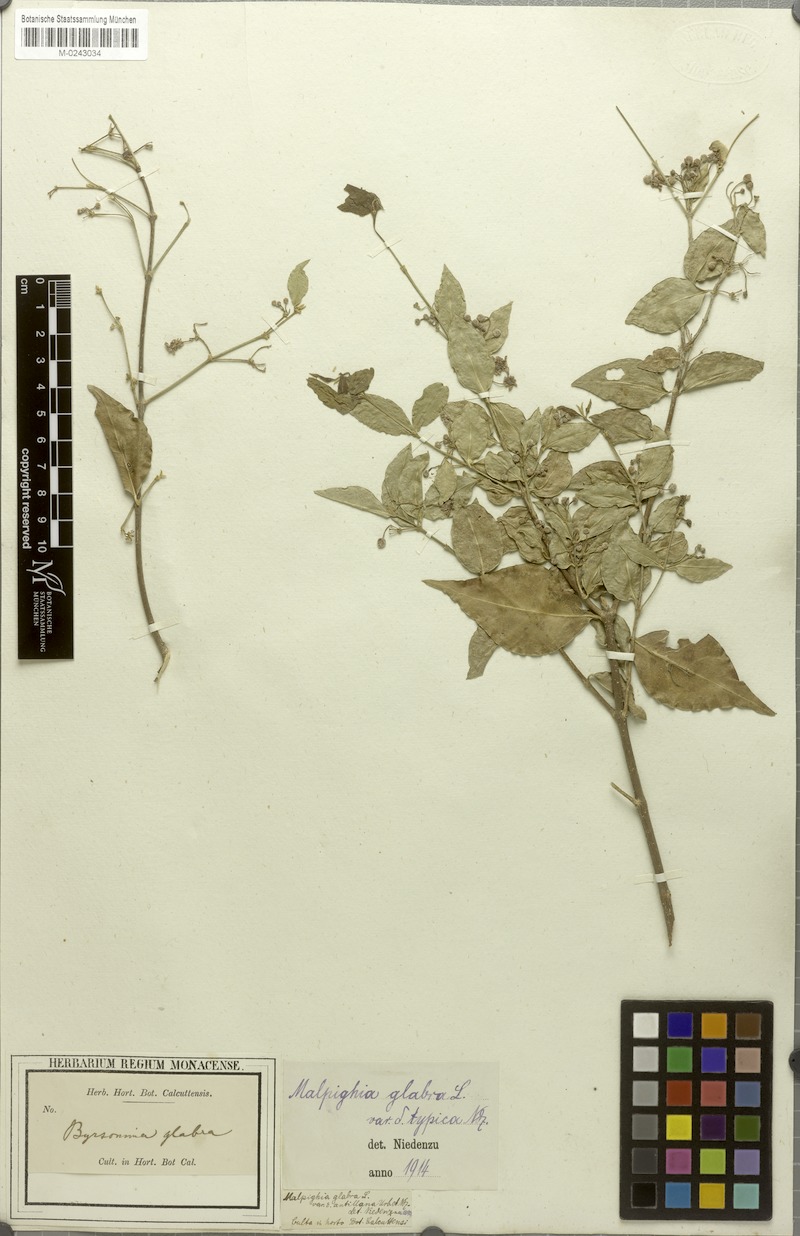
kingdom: Plantae
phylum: Tracheophyta
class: Magnoliopsida
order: Malpighiales
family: Malpighiaceae
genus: Malpighia
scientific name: Malpighia glabra
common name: Barbados cherry
